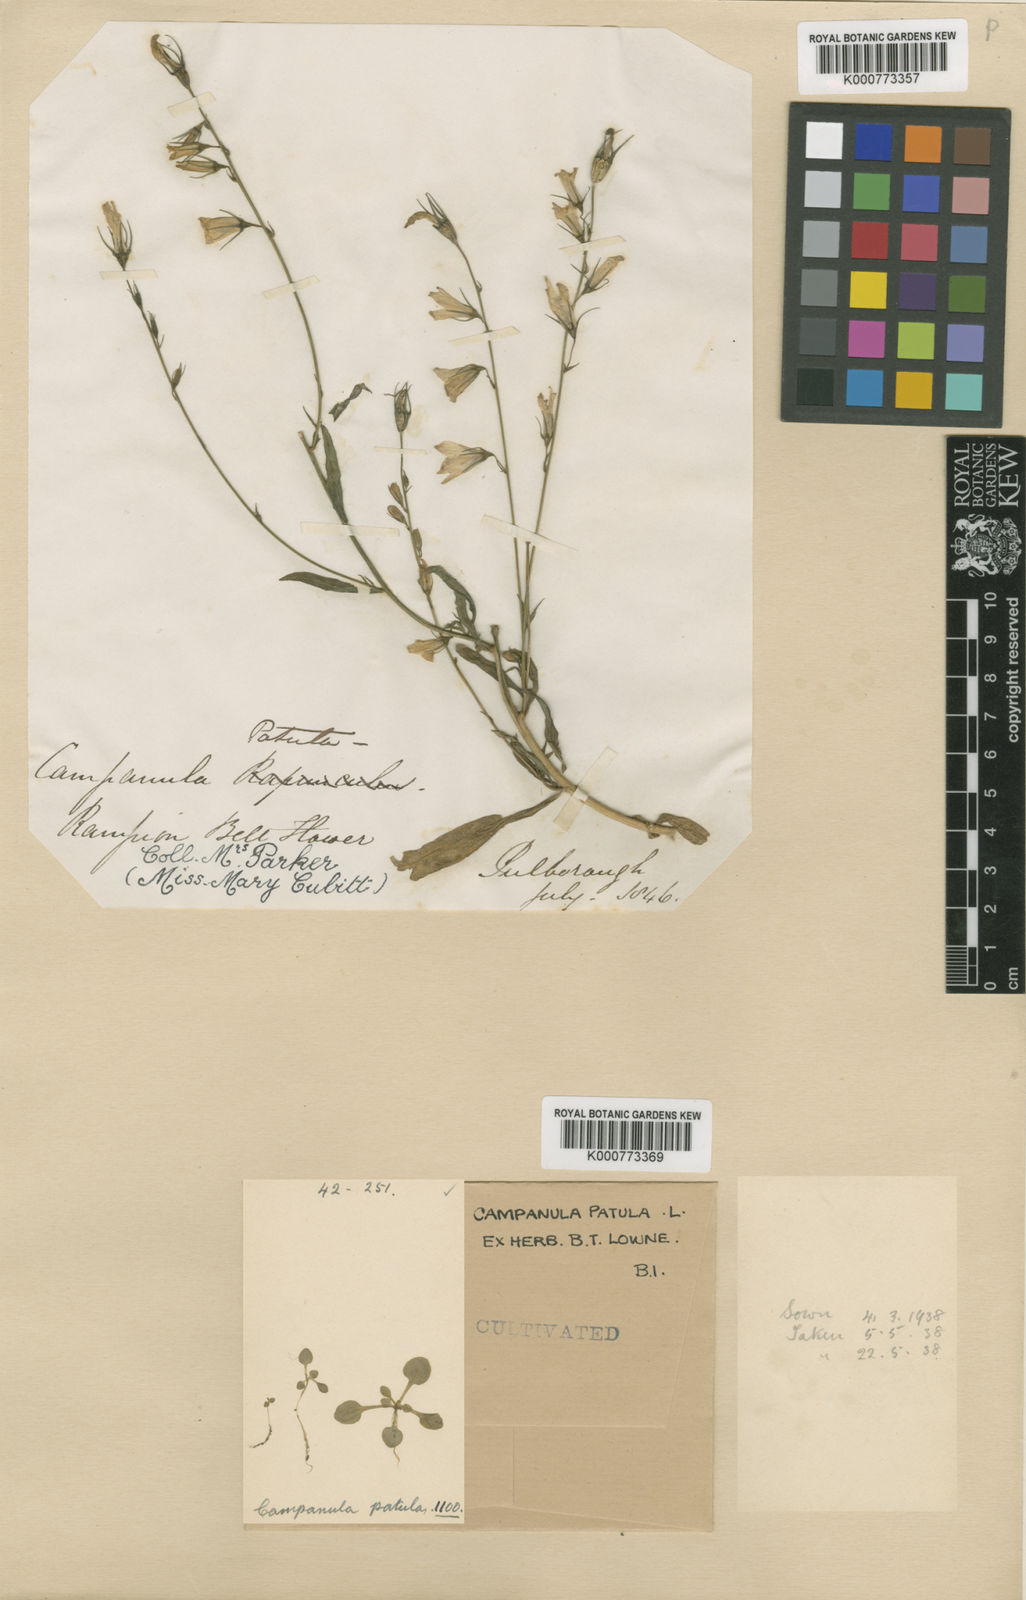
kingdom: Plantae
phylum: Tracheophyta
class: Magnoliopsida
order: Asterales
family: Campanulaceae
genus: Campanula
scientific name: Campanula patula
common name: Spreading bellflower
